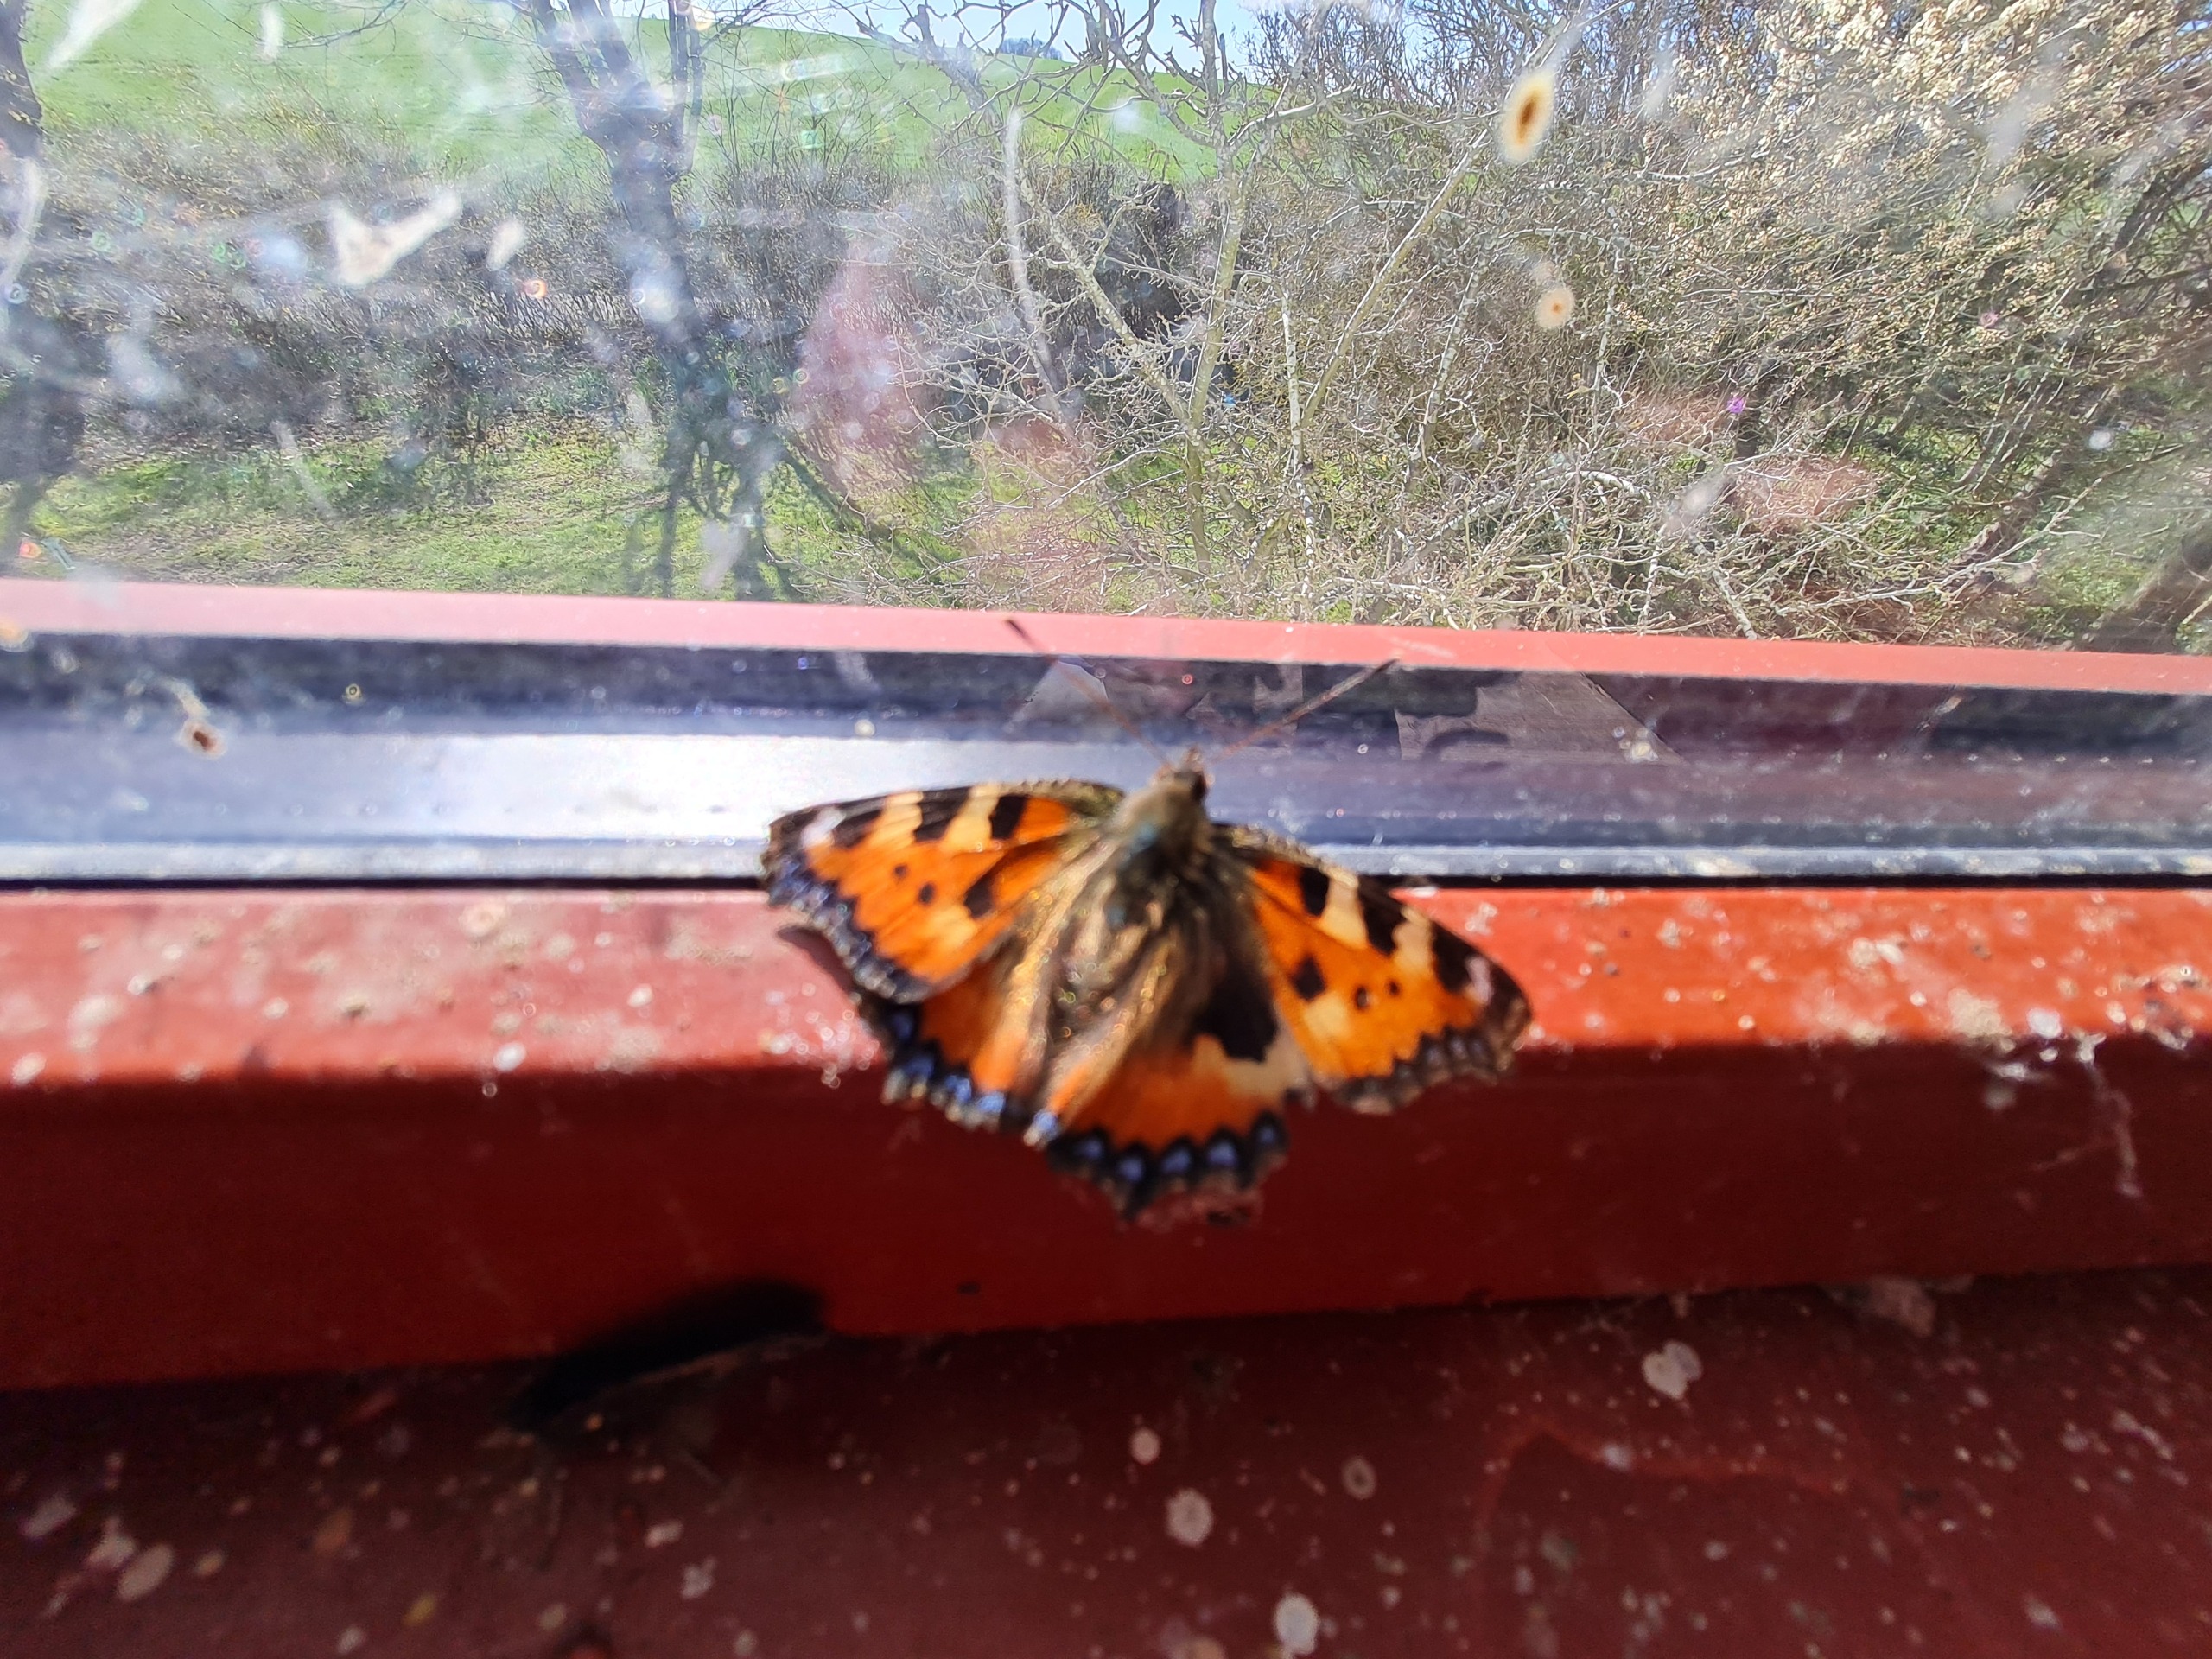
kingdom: Animalia
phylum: Arthropoda
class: Insecta
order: Lepidoptera
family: Nymphalidae
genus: Aglais
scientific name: Aglais urticae
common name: Nældens takvinge
